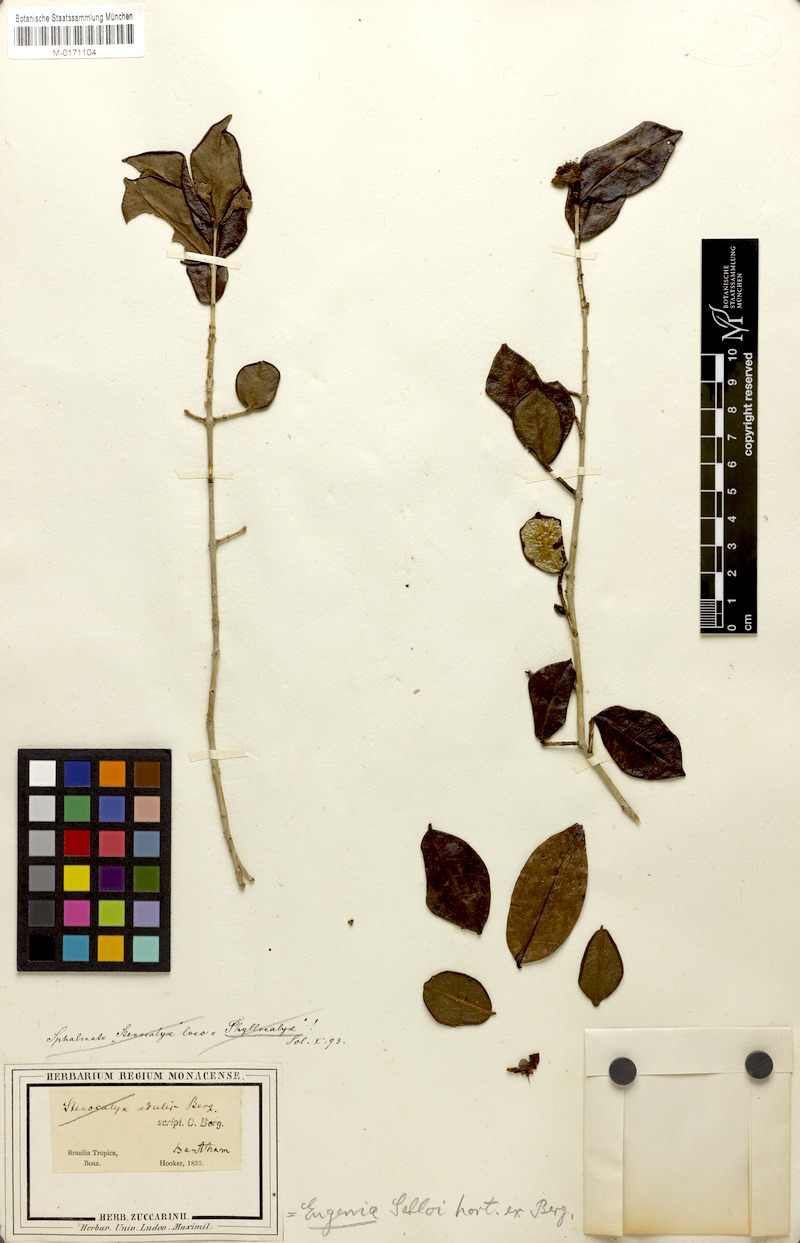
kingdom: Plantae
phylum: Tracheophyta
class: Magnoliopsida
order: Myrtales
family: Myrtaceae
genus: Eugenia
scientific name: Eugenia selloi
